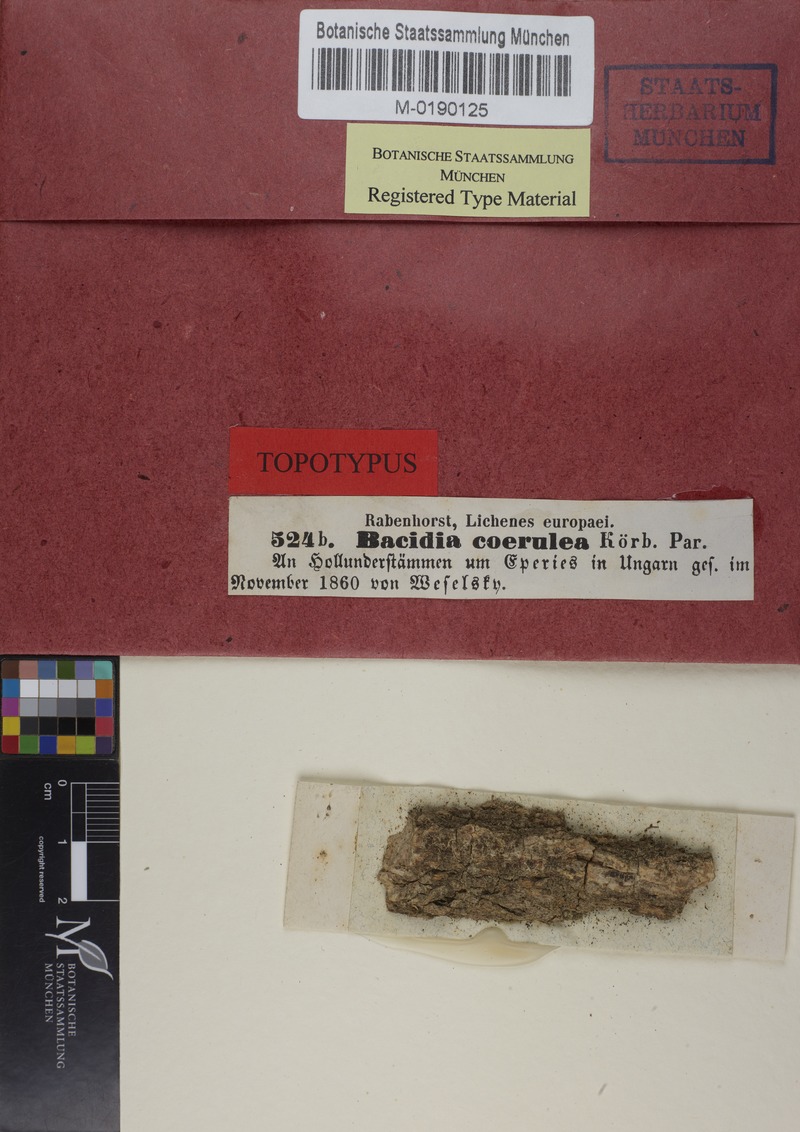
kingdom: Fungi
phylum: Ascomycota
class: Lecanoromycetes
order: Lecanorales
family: Ramalinaceae
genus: Bacidia
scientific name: Bacidia friesiana
